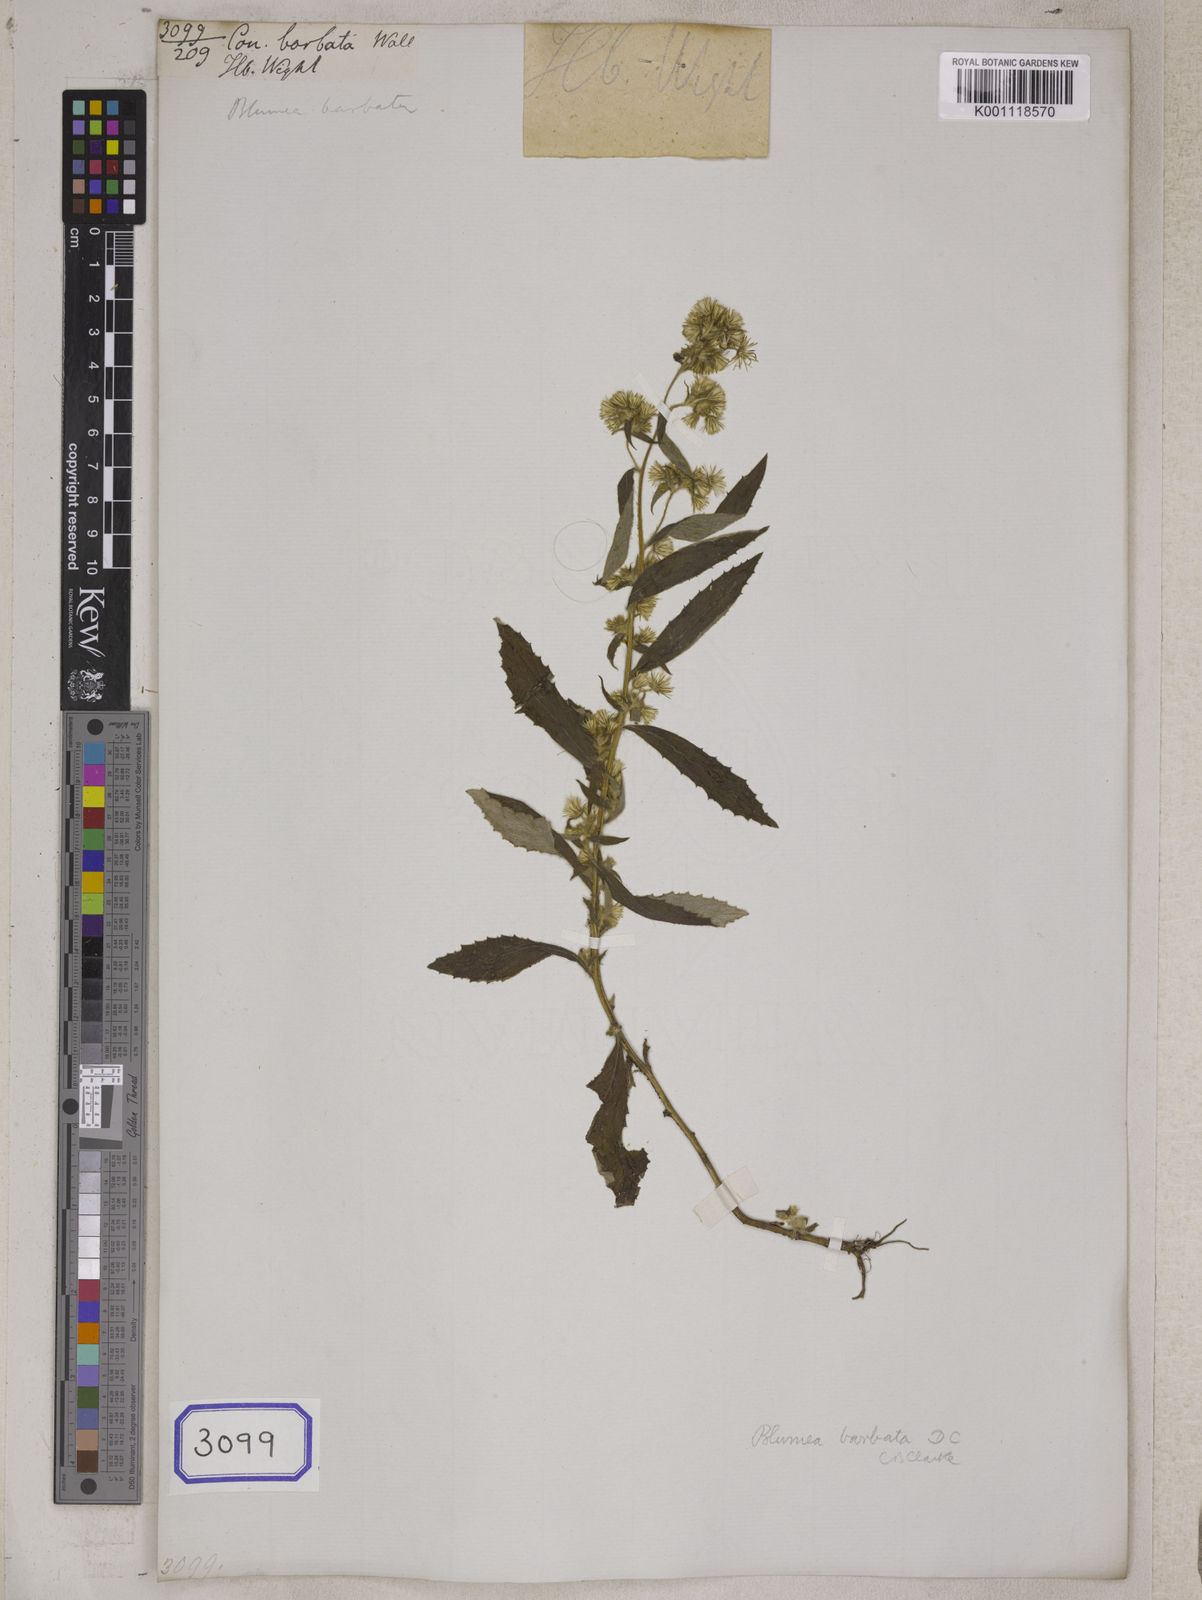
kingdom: Plantae
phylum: Tracheophyta
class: Magnoliopsida
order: Asterales
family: Asteraceae
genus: Blumea
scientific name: Blumea barbata
